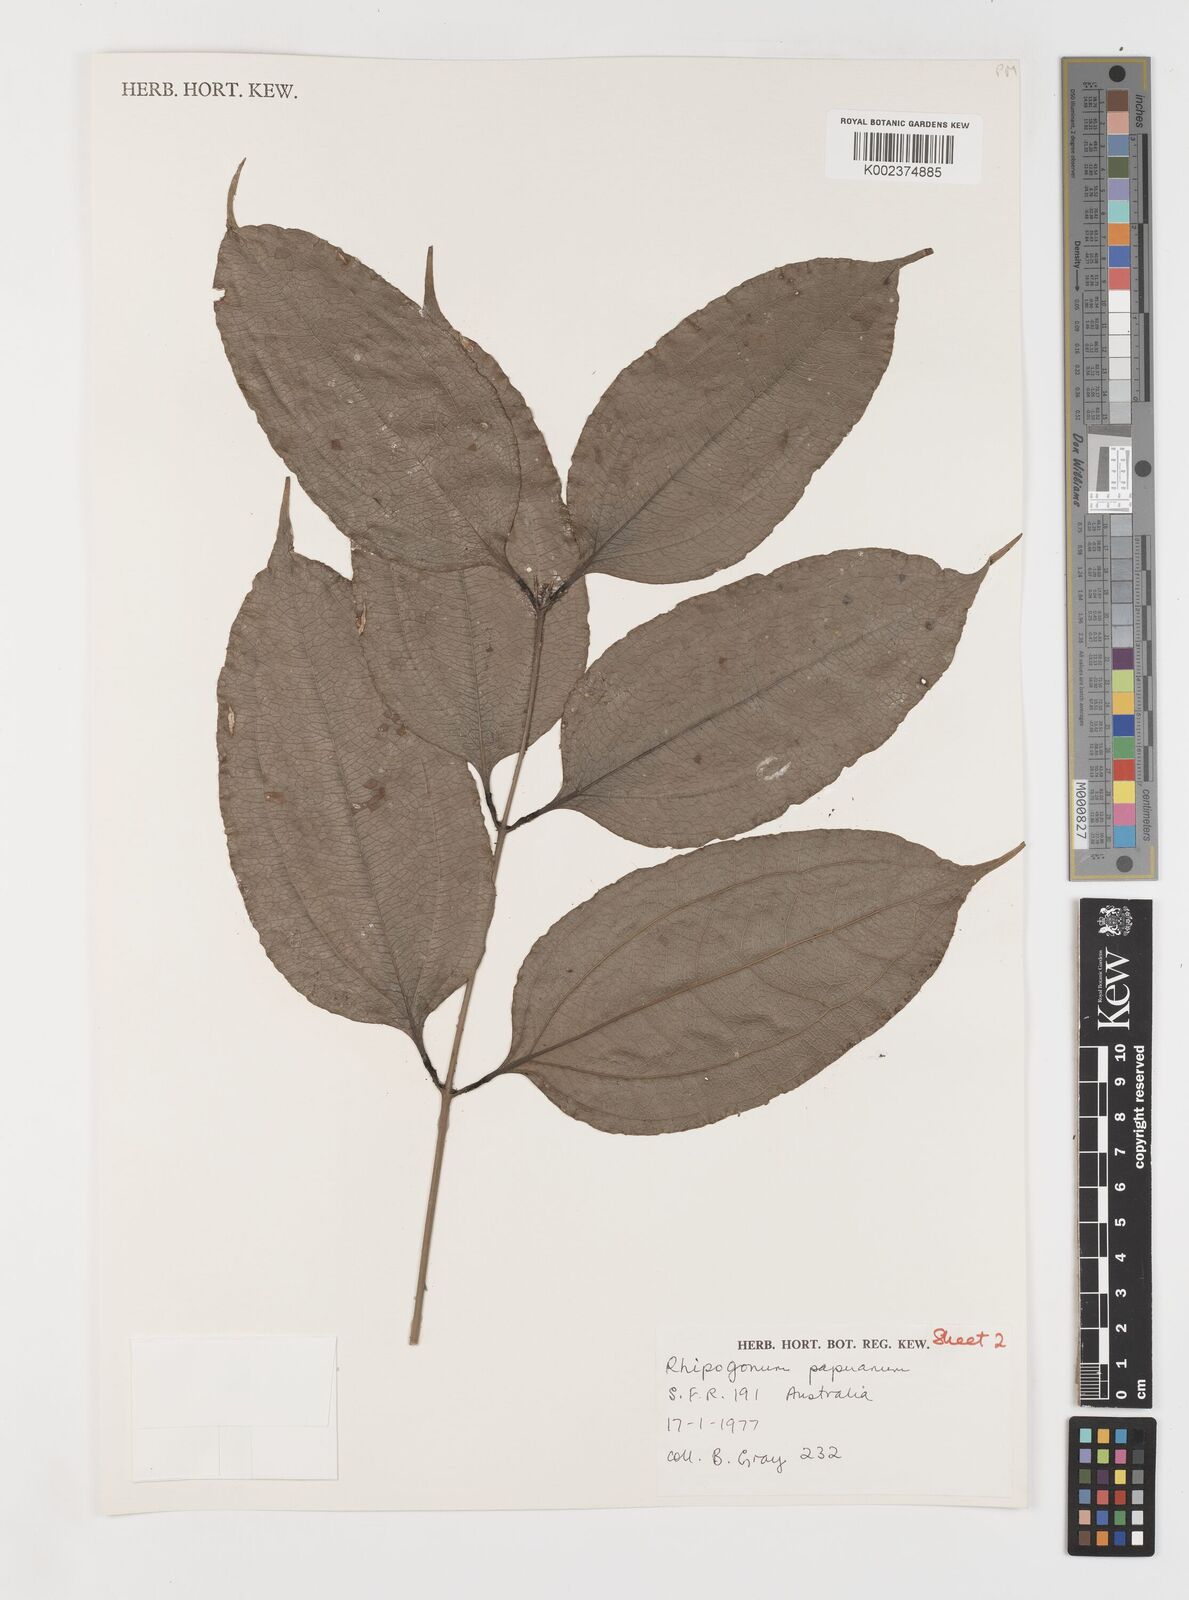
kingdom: Plantae
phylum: Tracheophyta
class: Liliopsida
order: Liliales
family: Ripogonaceae
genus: Ripogonum
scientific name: Ripogonum album
